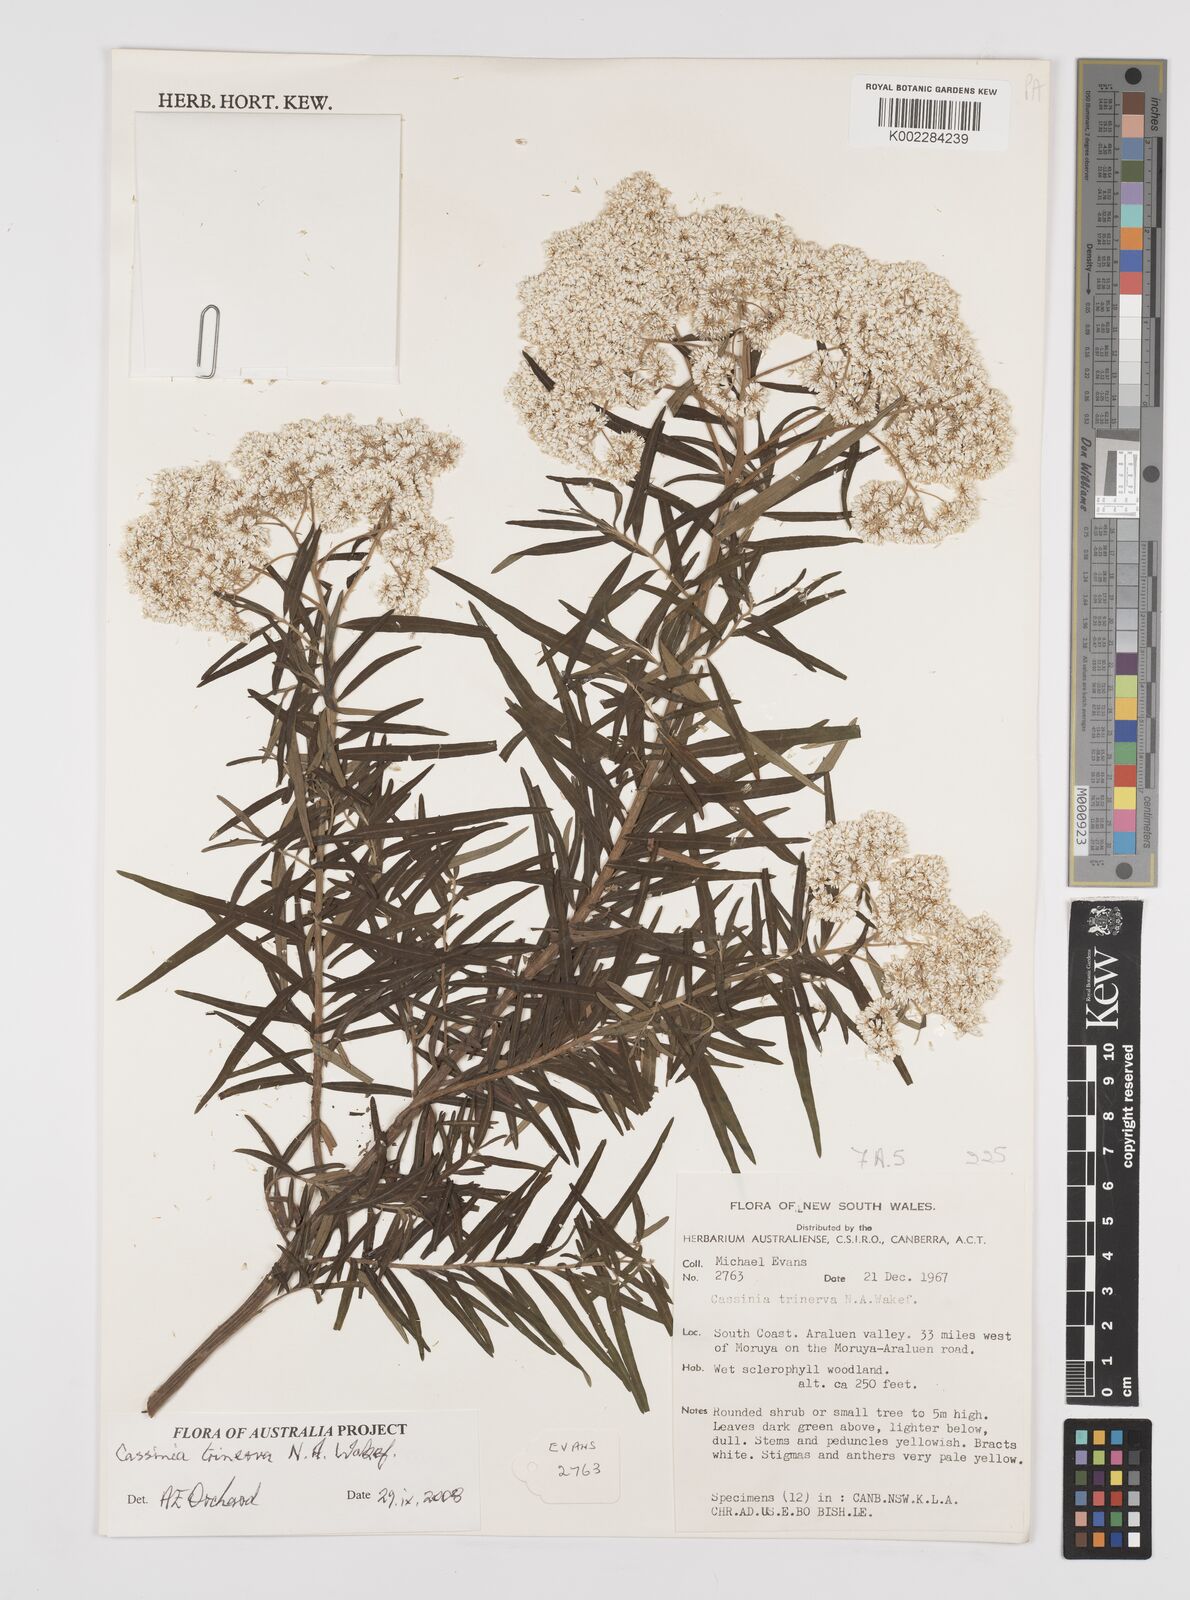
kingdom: Plantae
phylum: Tracheophyta
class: Magnoliopsida
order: Asterales
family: Asteraceae
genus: Cassinia
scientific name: Cassinia trinerva
